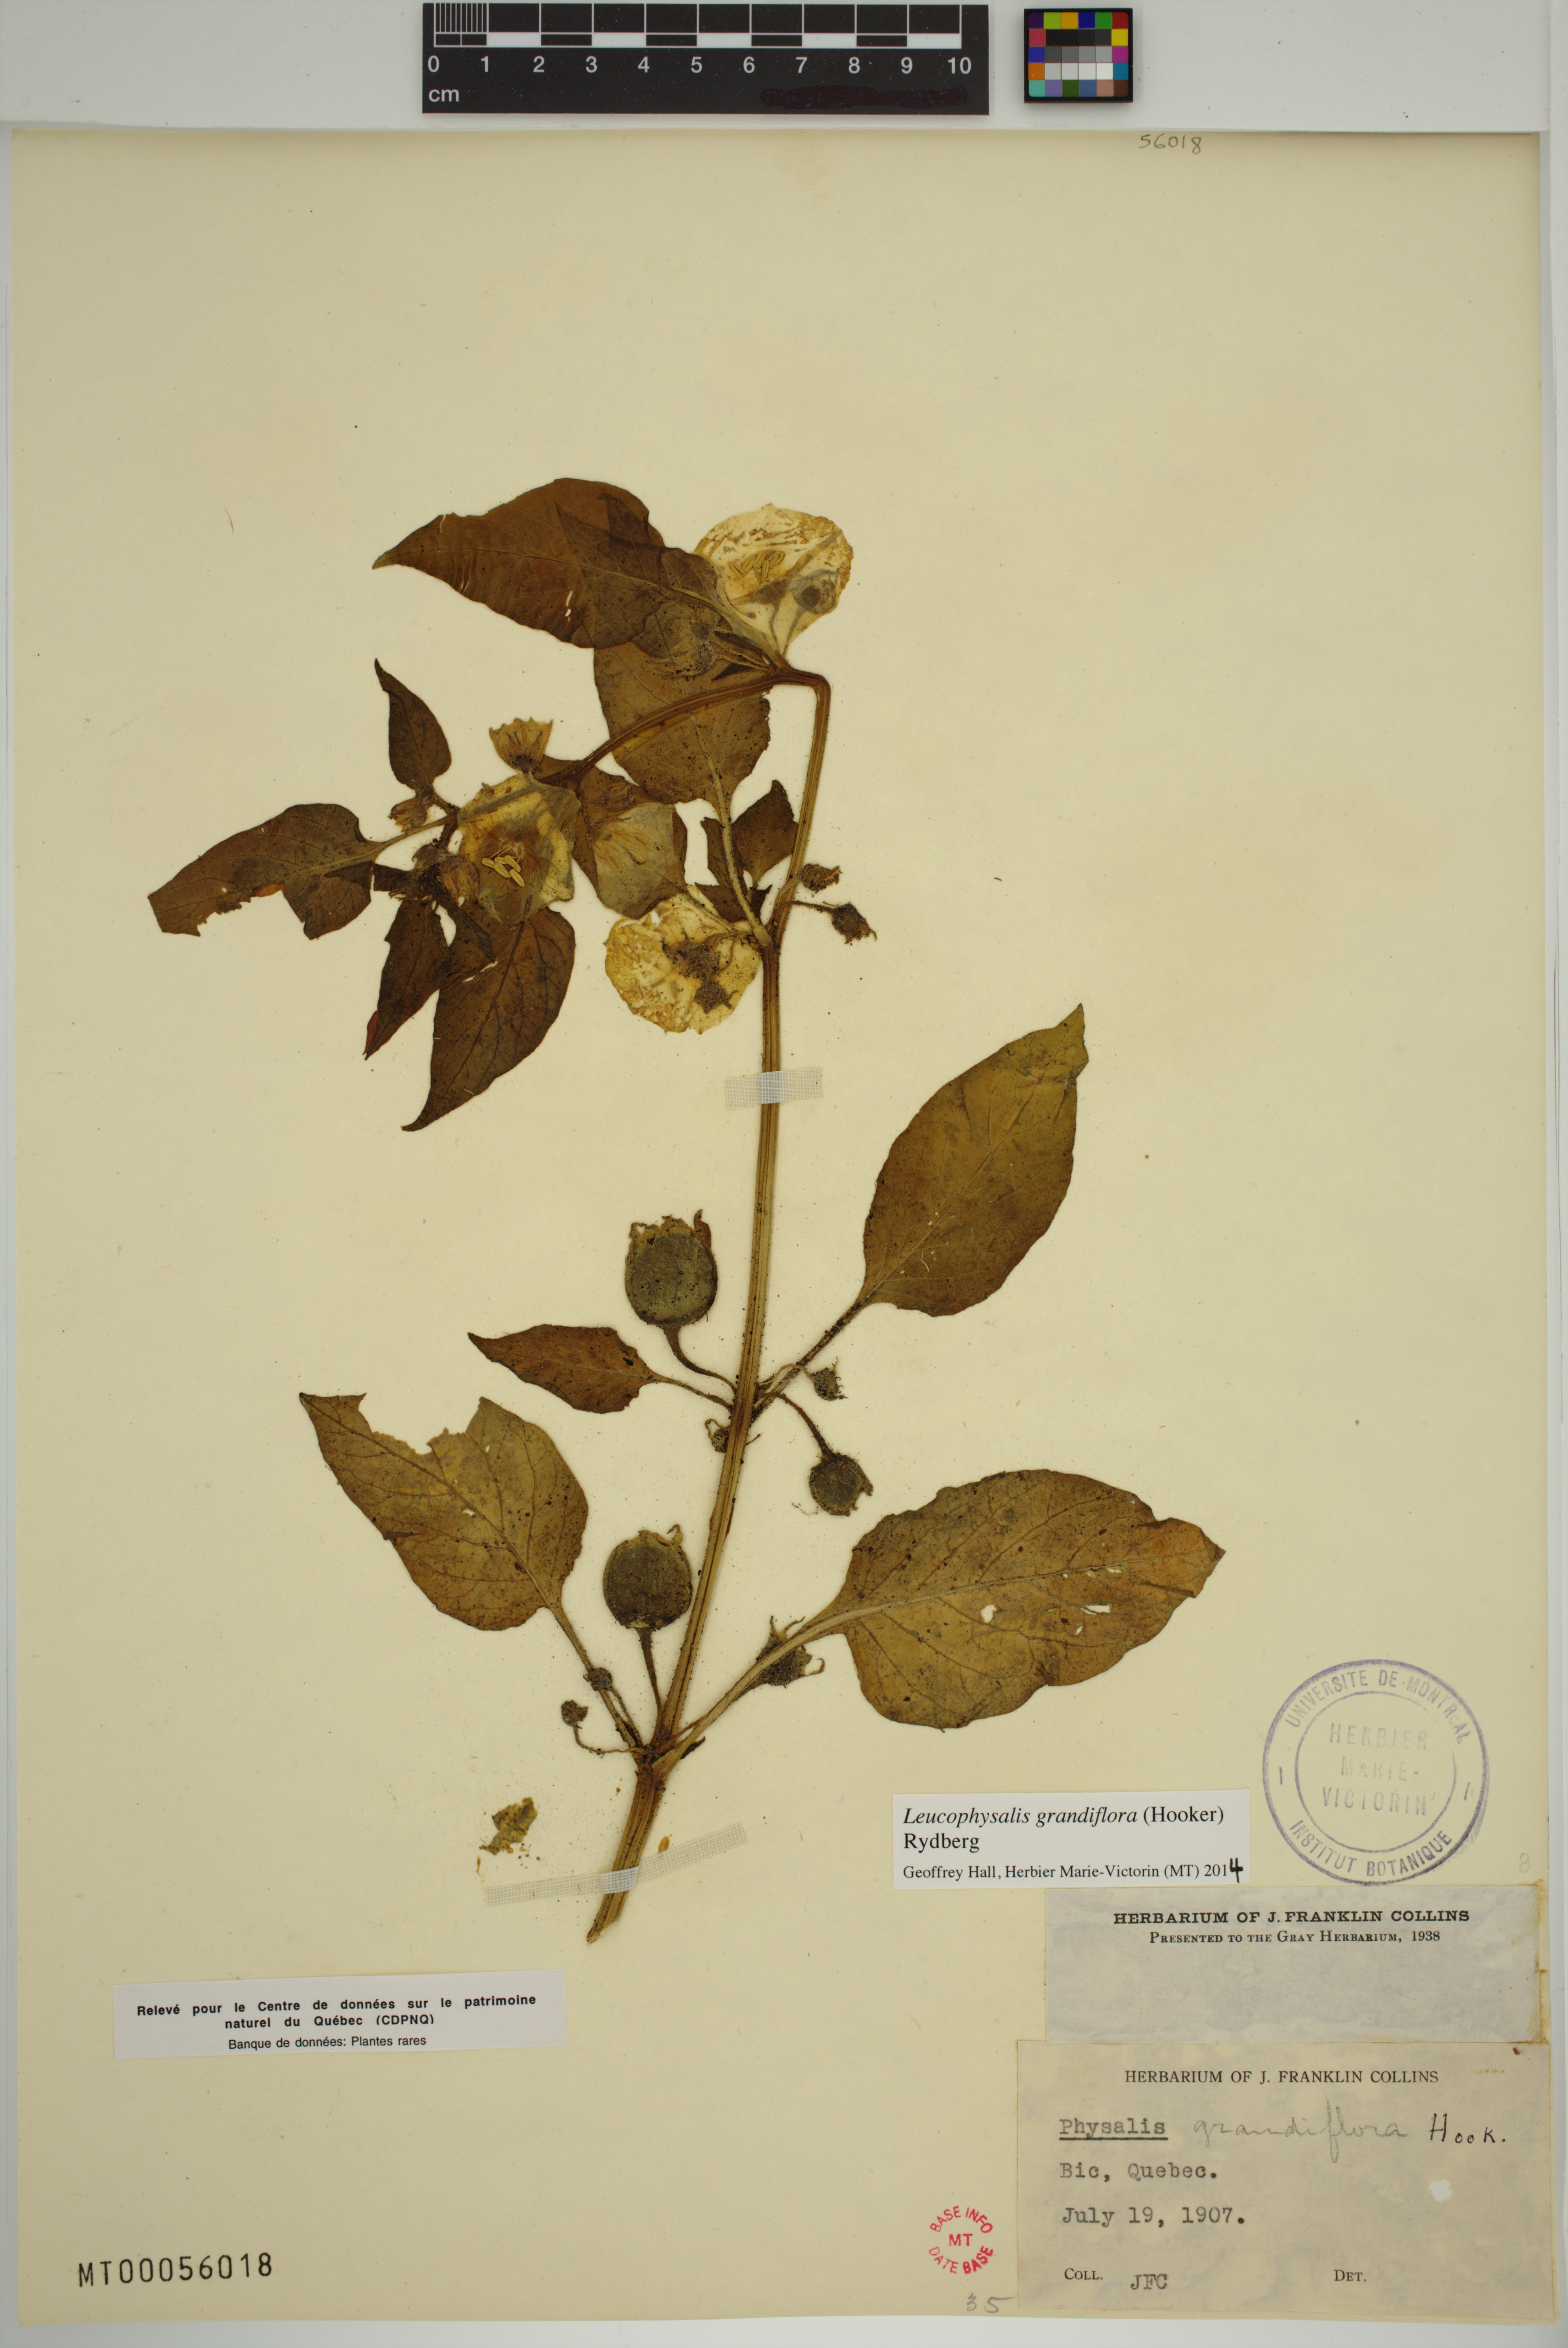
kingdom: Plantae
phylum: Tracheophyta
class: Magnoliopsida
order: Solanales
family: Solanaceae
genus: Leucophysalis
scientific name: Leucophysalis grandiflora
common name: Large false ground-cherry
